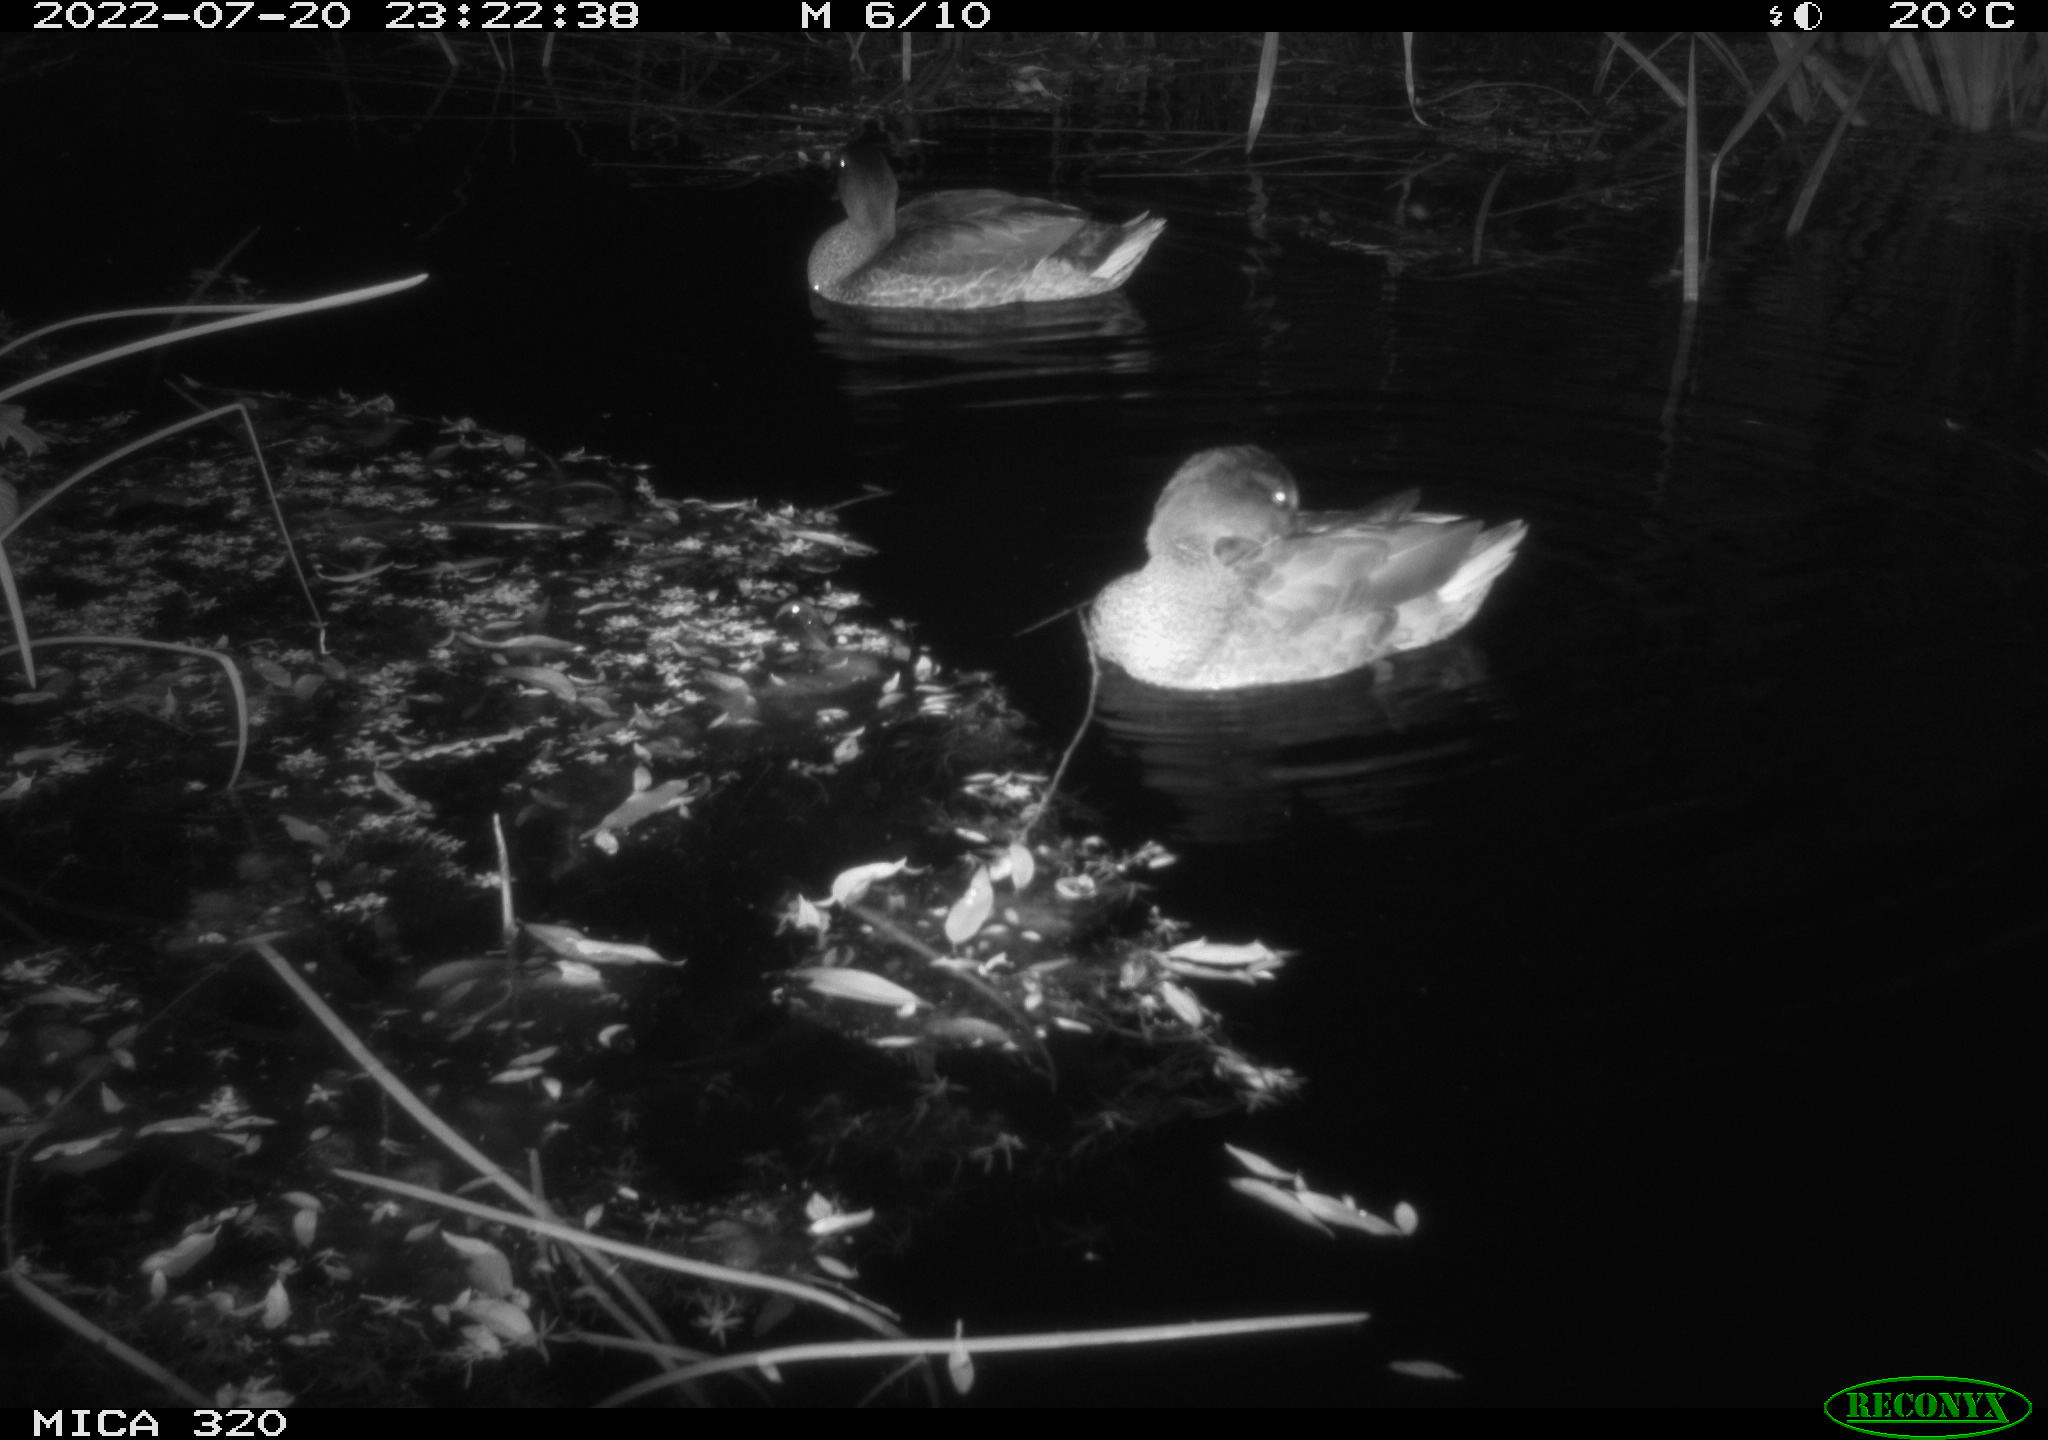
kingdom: Animalia
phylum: Chordata
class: Aves
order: Anseriformes
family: Anatidae
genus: Mareca
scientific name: Mareca strepera
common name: Gadwall
